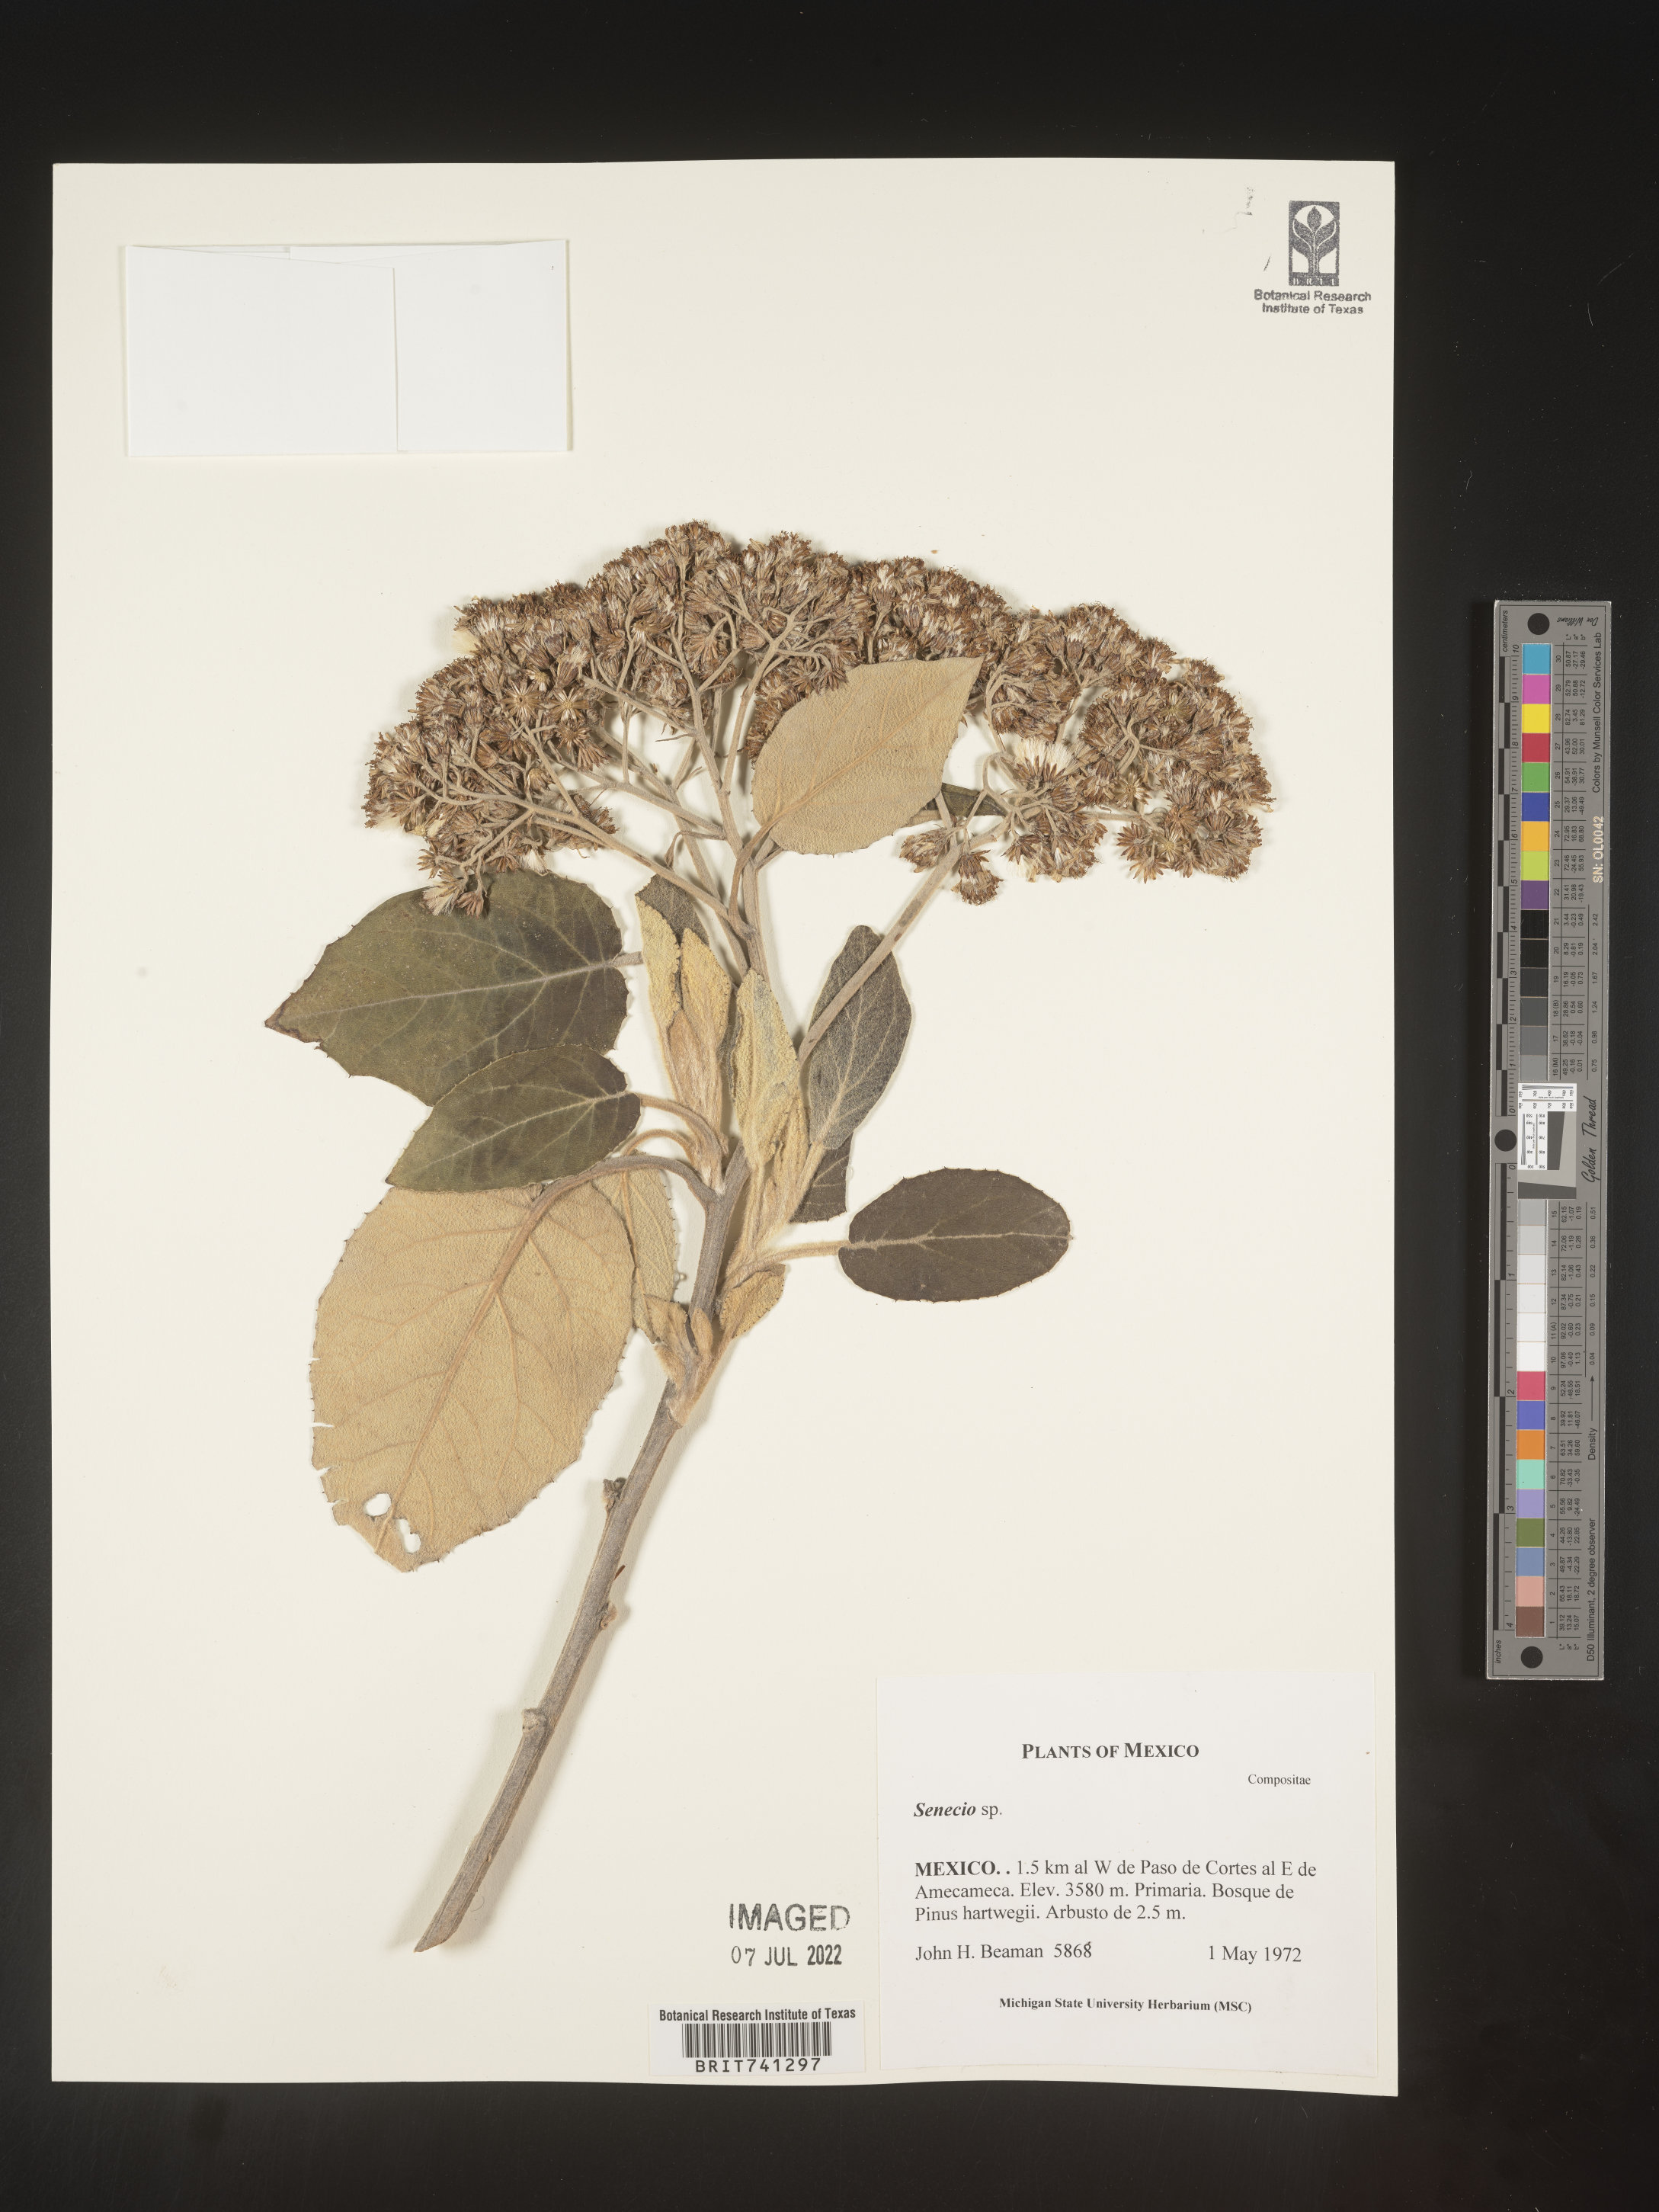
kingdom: Plantae
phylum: Tracheophyta
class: Magnoliopsida
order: Asterales
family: Asteraceae
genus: Senecio
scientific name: Senecio
